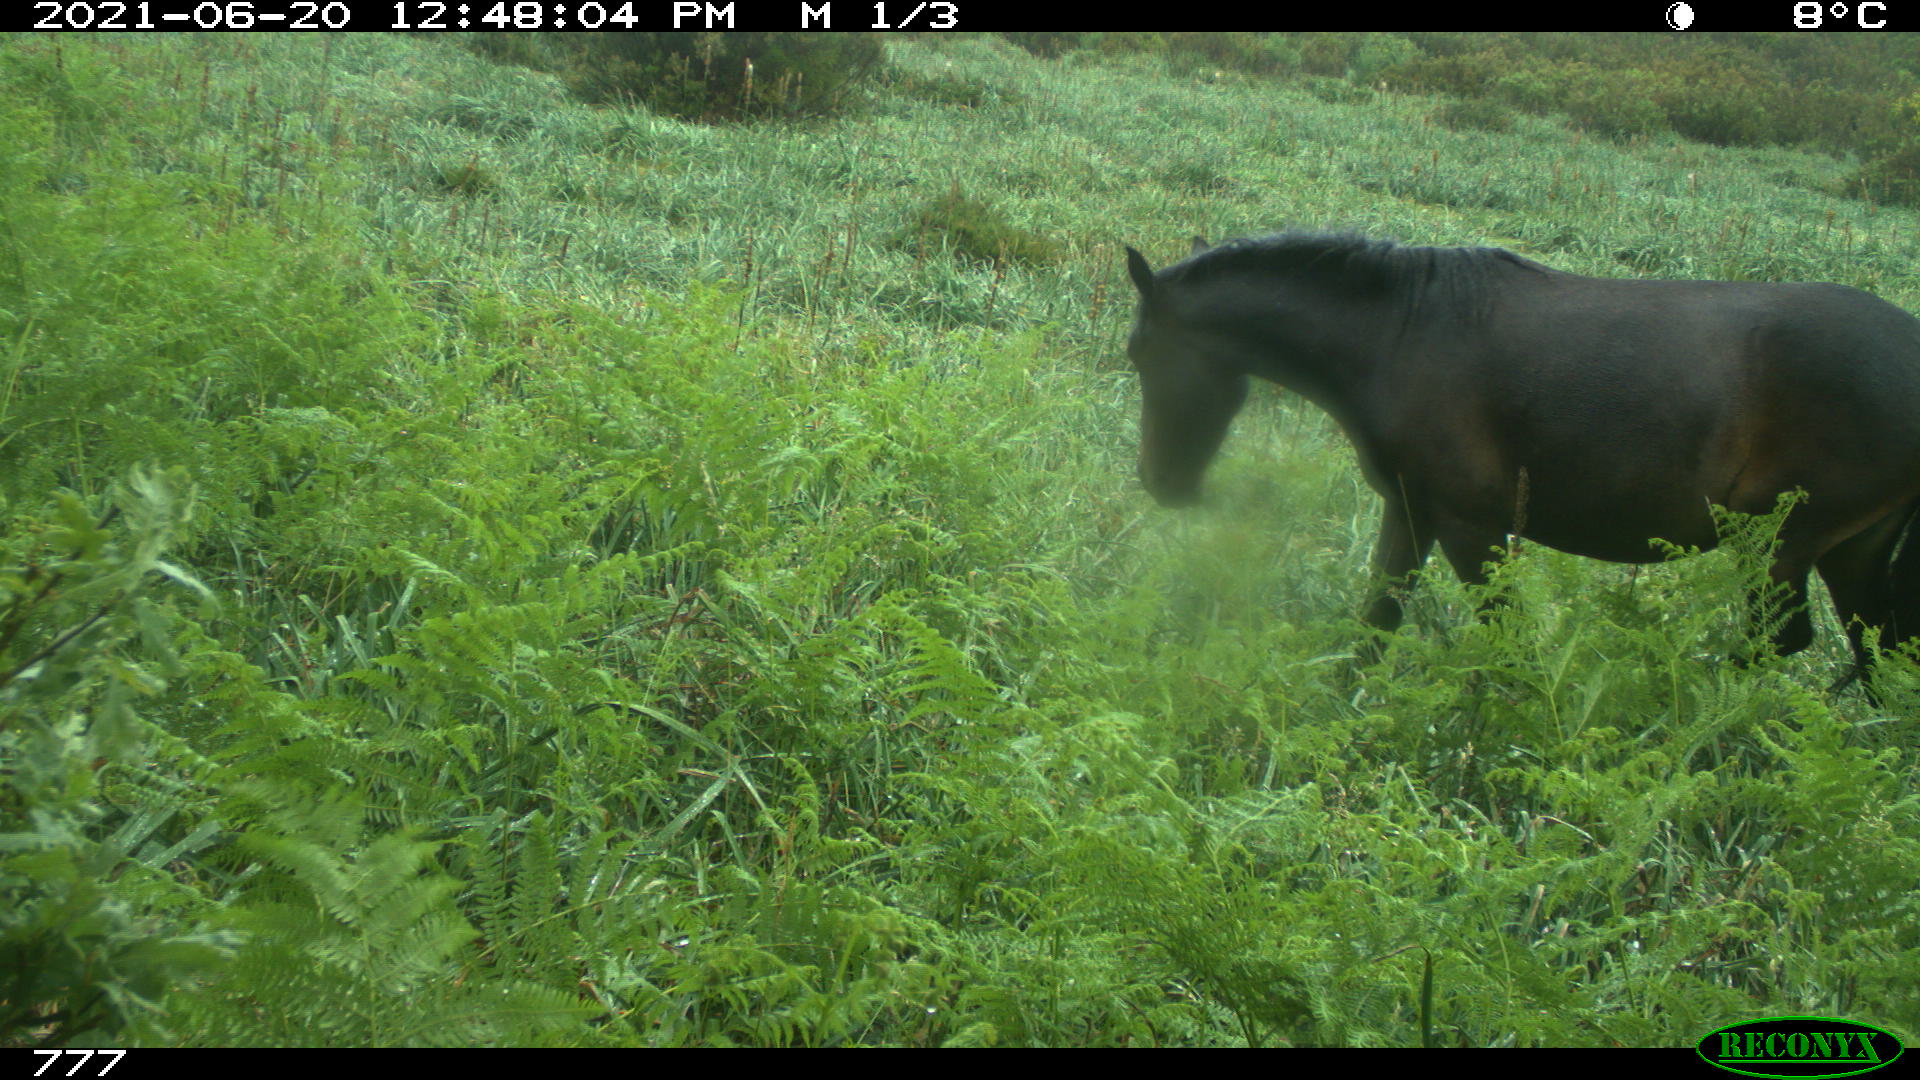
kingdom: Animalia
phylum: Chordata
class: Mammalia
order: Perissodactyla
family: Equidae
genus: Equus
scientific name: Equus caballus
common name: Horse
